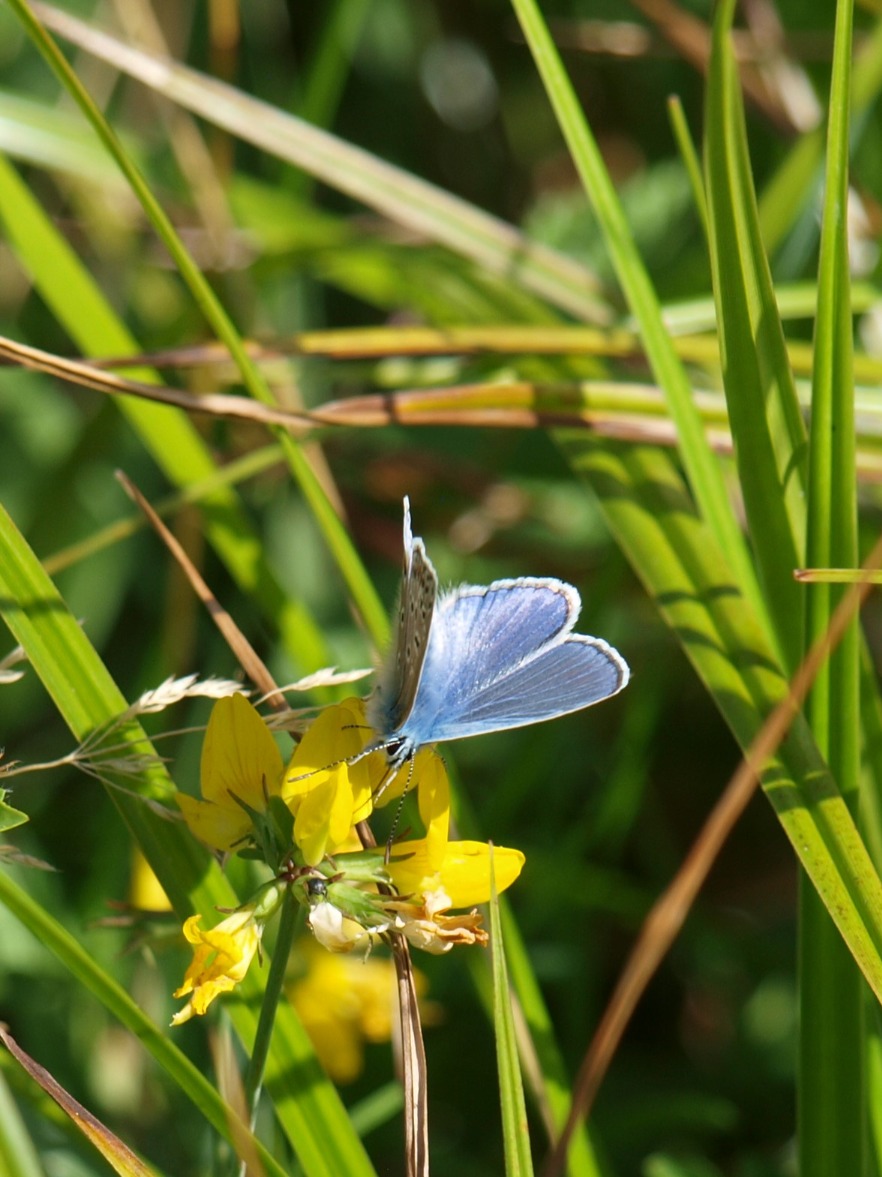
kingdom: Animalia
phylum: Arthropoda
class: Insecta
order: Lepidoptera
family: Lycaenidae
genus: Polyommatus
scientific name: Polyommatus icarus
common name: Almindelig blåfugl
